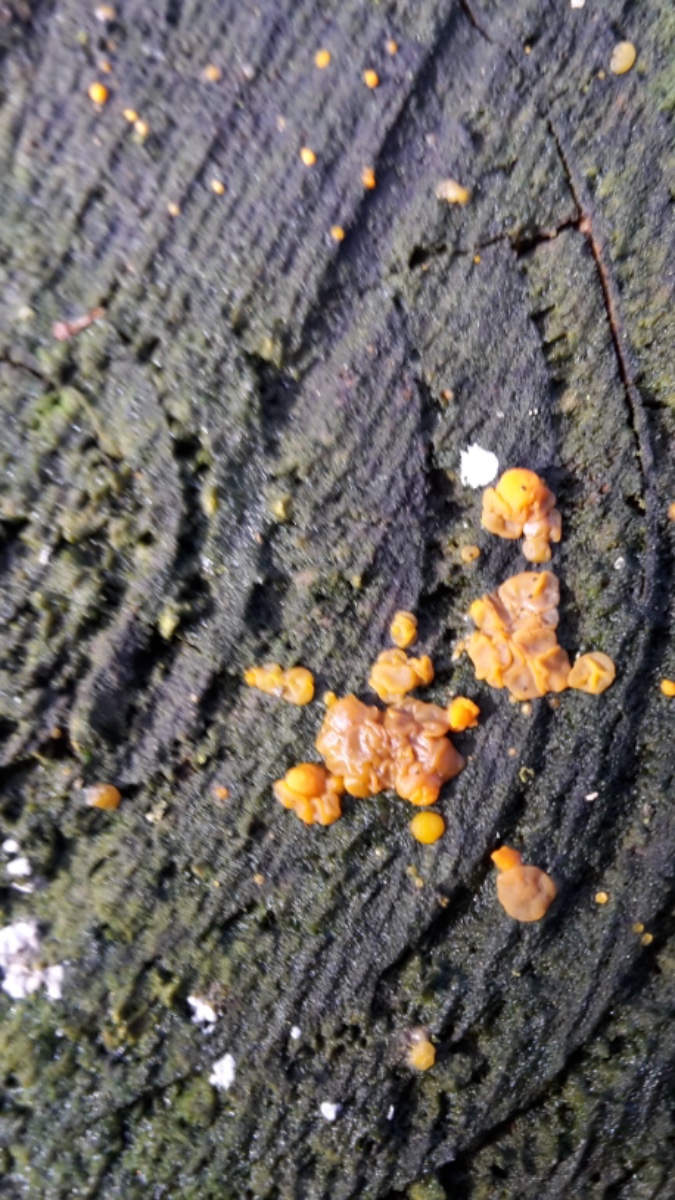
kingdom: Fungi
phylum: Basidiomycota
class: Dacrymycetes
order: Dacrymycetales
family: Dacrymycetaceae
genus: Dacrymyces
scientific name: Dacrymyces stillatus
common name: almindelig tåresvamp
